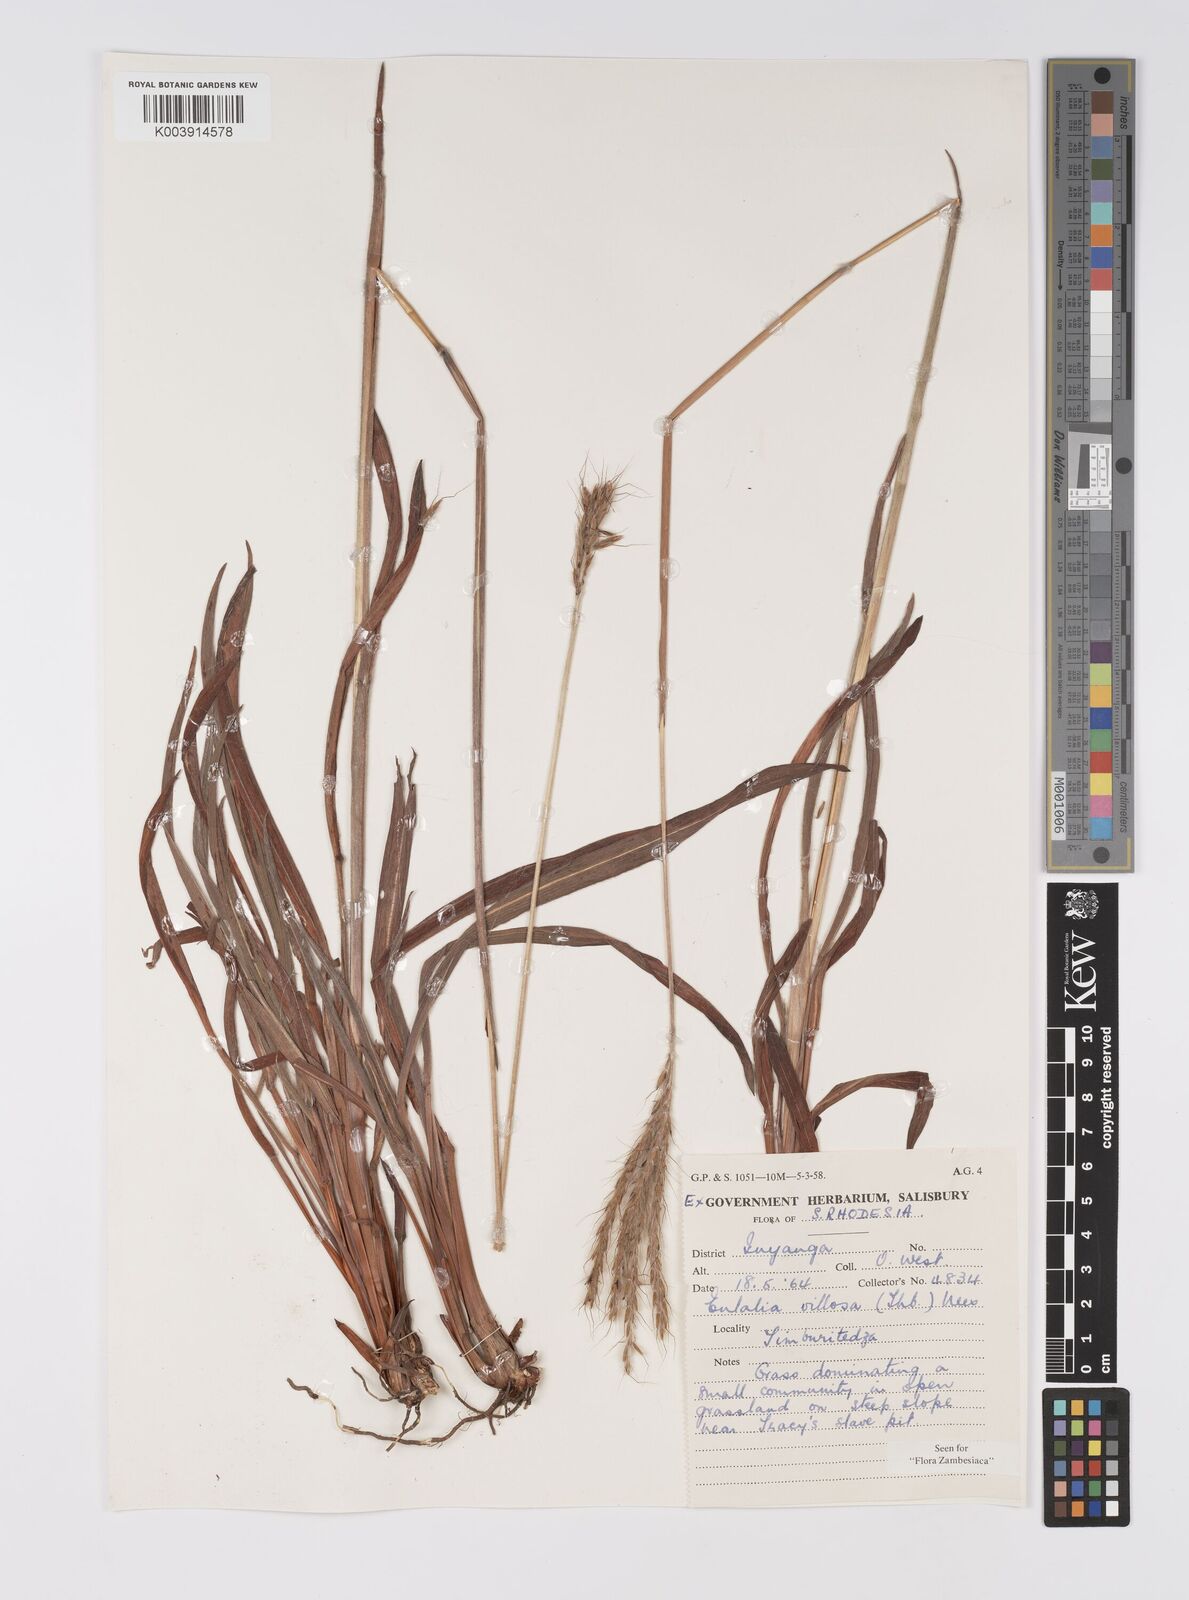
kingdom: Plantae
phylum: Tracheophyta
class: Liliopsida
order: Poales
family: Poaceae
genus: Eulalia
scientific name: Eulalia villosa
